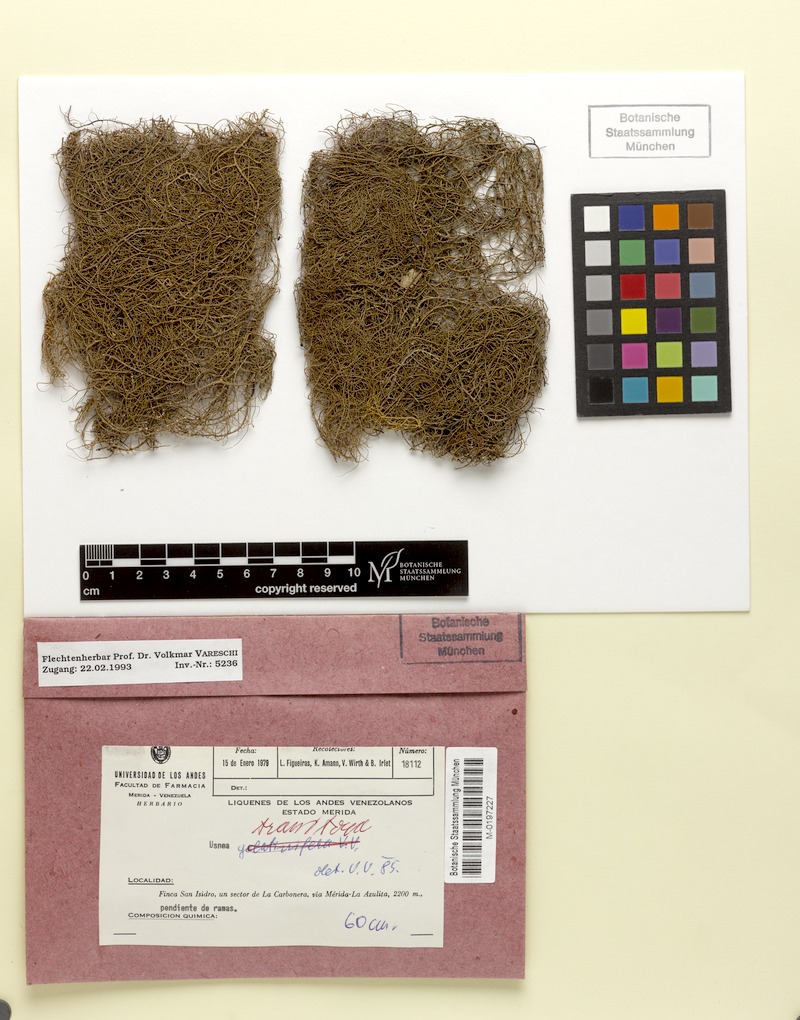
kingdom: Fungi
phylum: Ascomycota
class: Lecanoromycetes
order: Lecanorales
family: Parmeliaceae
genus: Usnea
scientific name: Usnea transitoria
